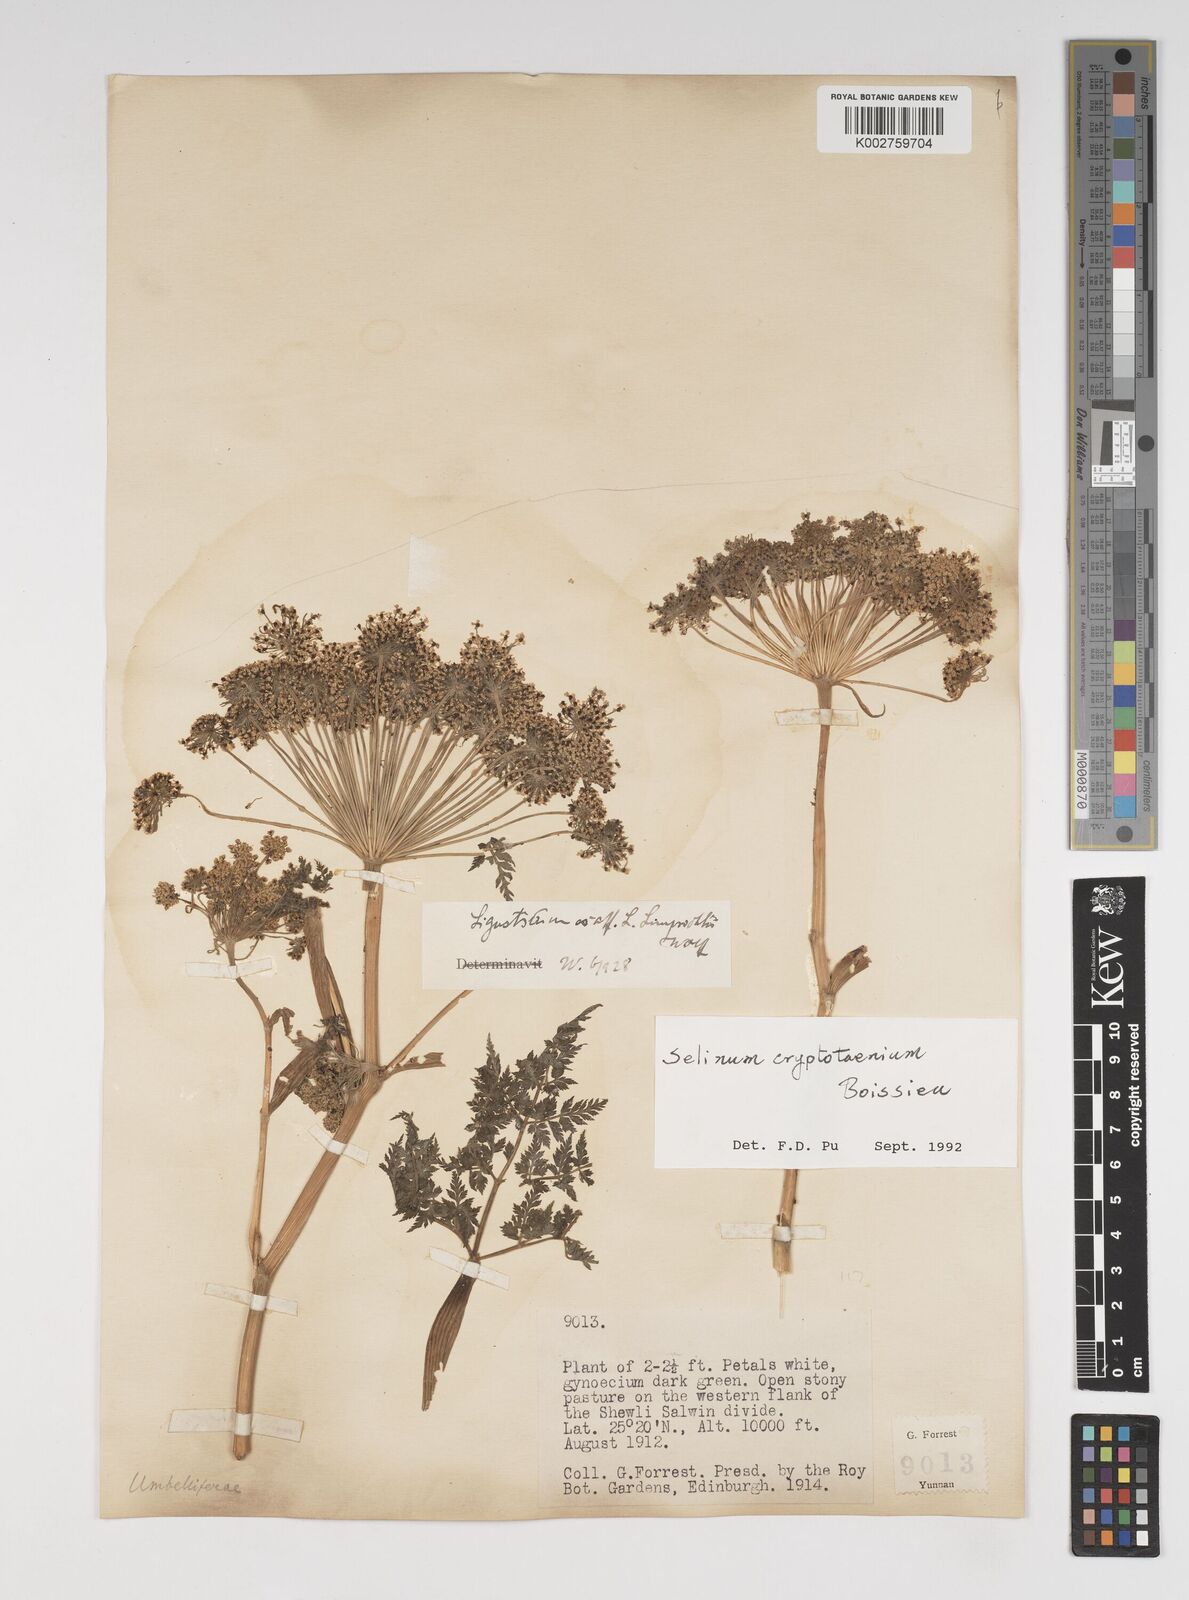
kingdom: Plantae
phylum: Tracheophyta
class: Magnoliopsida
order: Apiales
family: Apiaceae
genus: Ligusticopsis
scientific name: Ligusticopsis cryptotaenia
